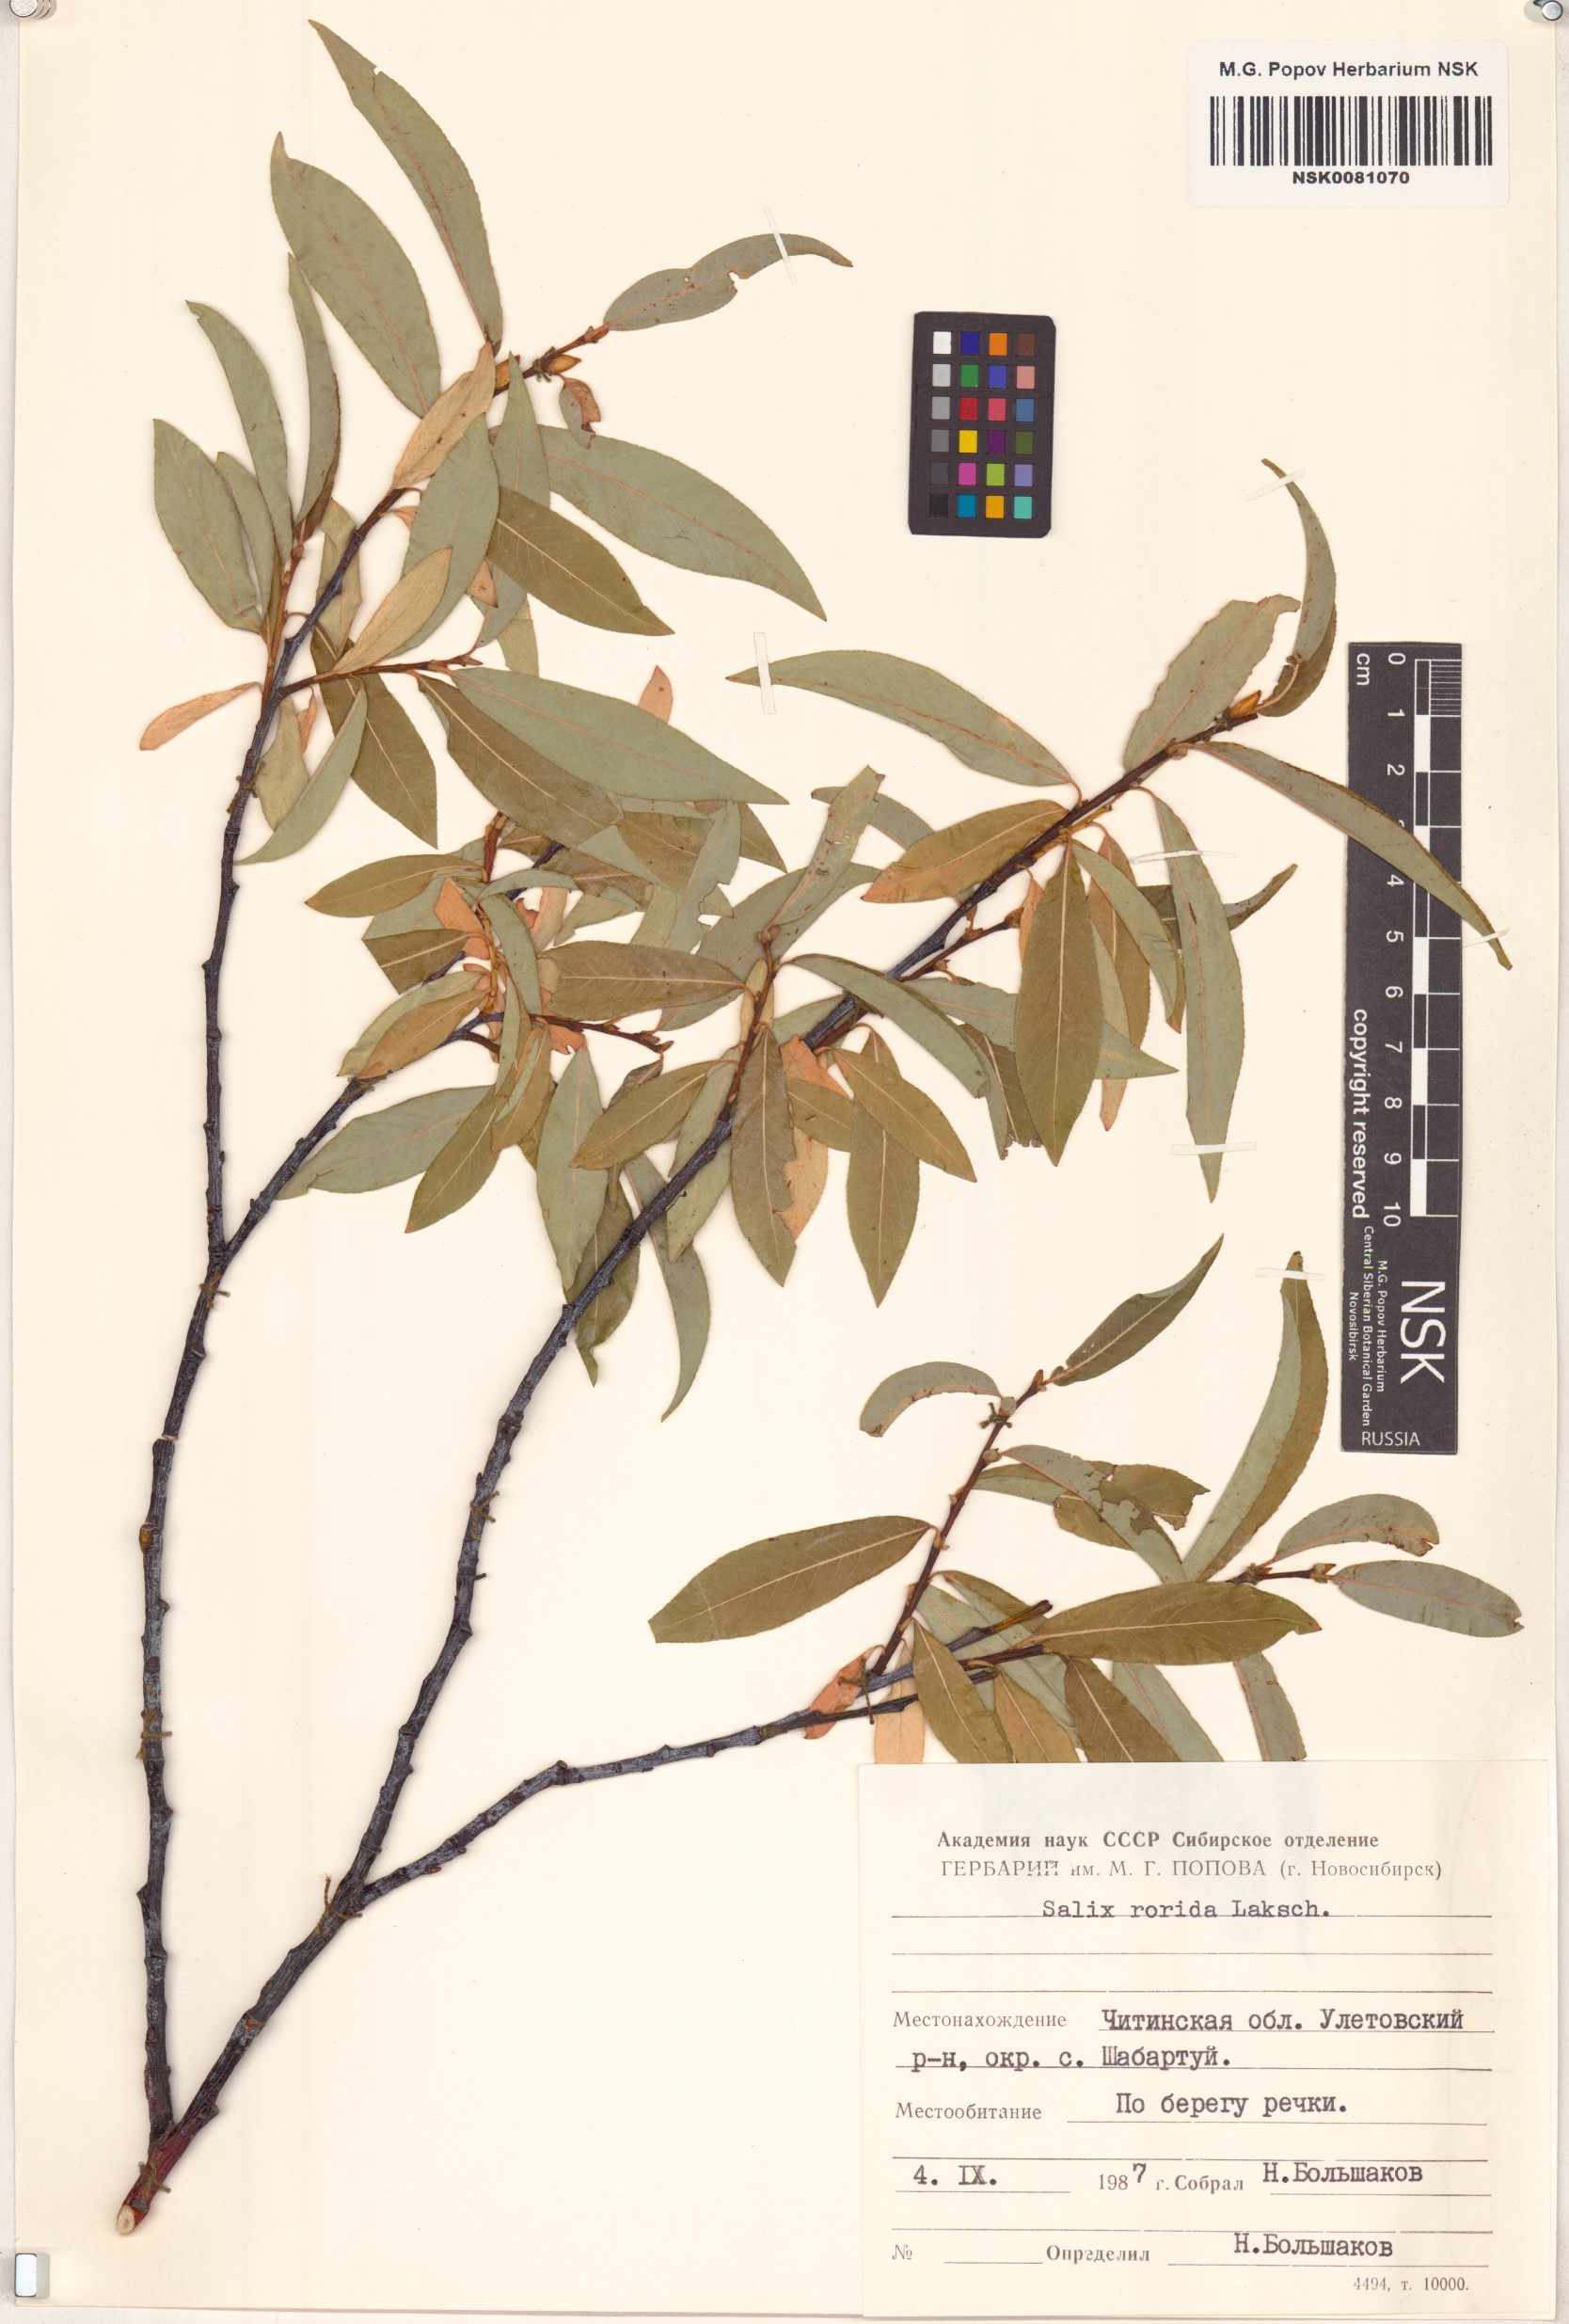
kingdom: Plantae
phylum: Tracheophyta
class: Magnoliopsida
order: Malpighiales
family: Salicaceae
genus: Salix
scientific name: Salix rorida
